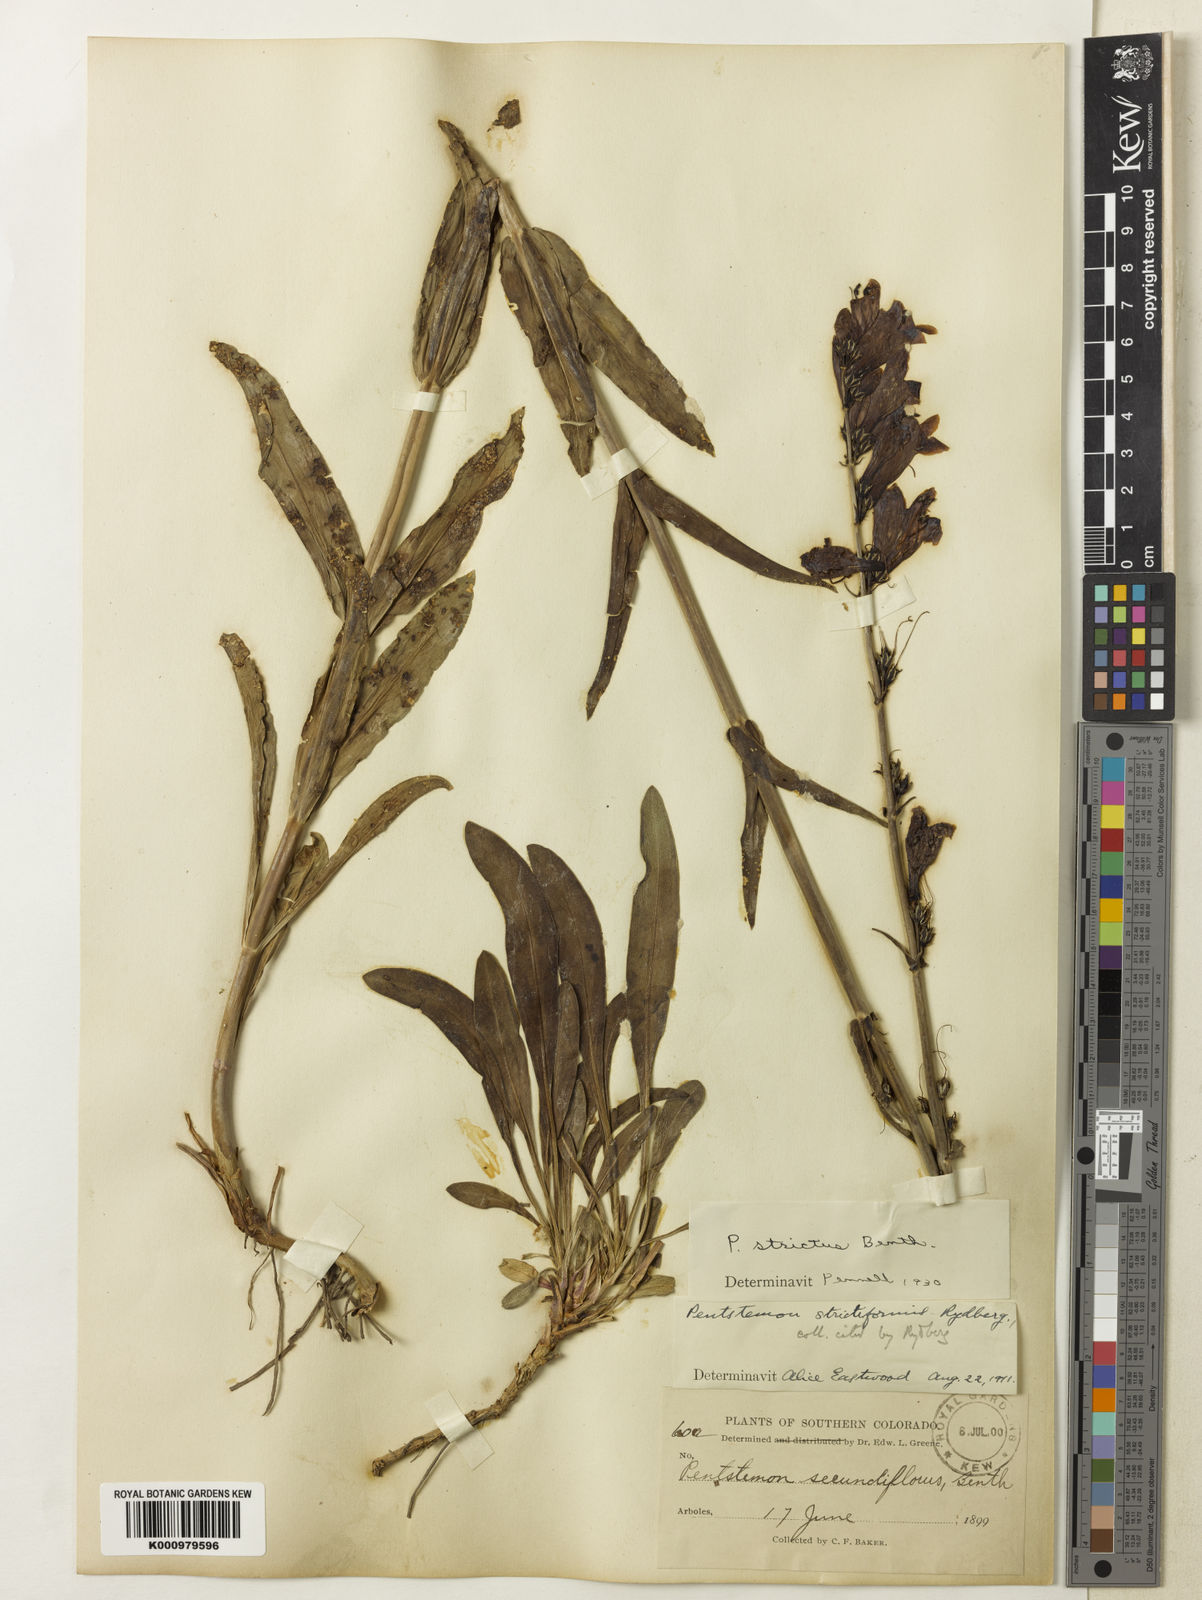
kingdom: Plantae
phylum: Tracheophyta
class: Magnoliopsida
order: Lamiales
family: Plantaginaceae
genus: Penstemon
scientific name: Penstemon strictus
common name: Rocky mountain penstemon
